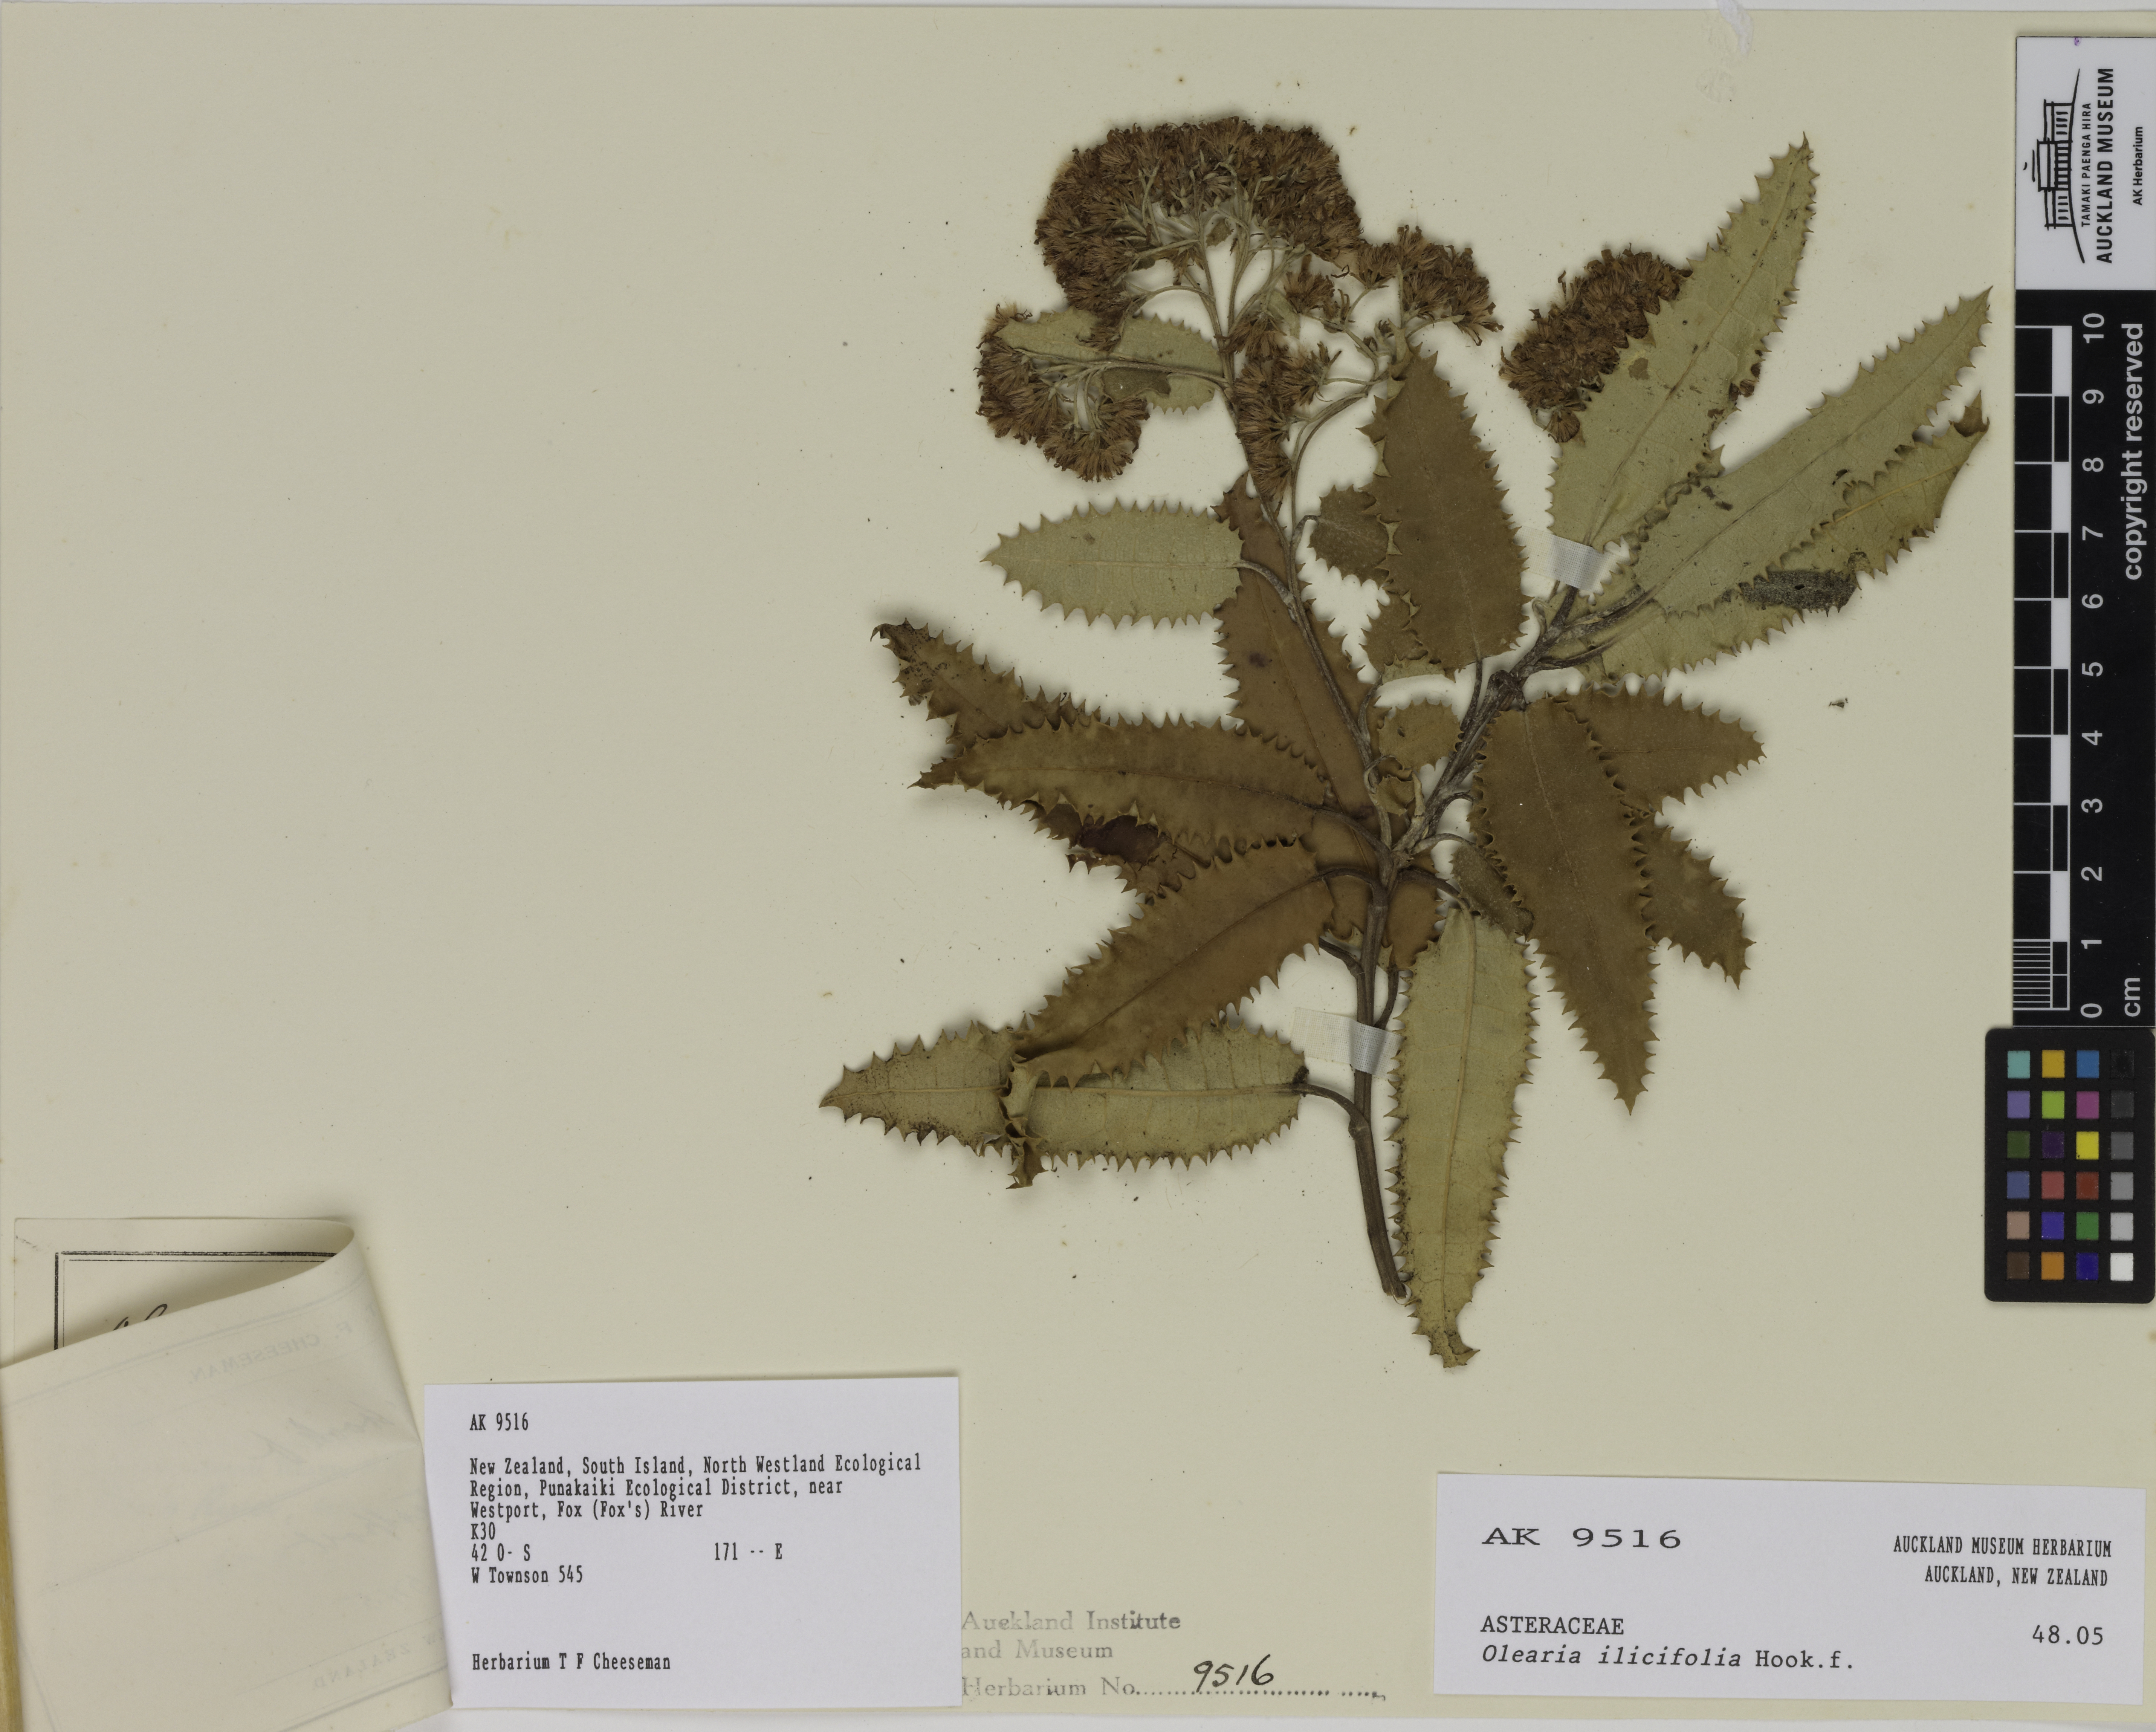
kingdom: Plantae
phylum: Tracheophyta
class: Magnoliopsida
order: Asterales
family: Asteraceae
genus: Olearia
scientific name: Olearia ilicifolia
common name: Maori-holly
